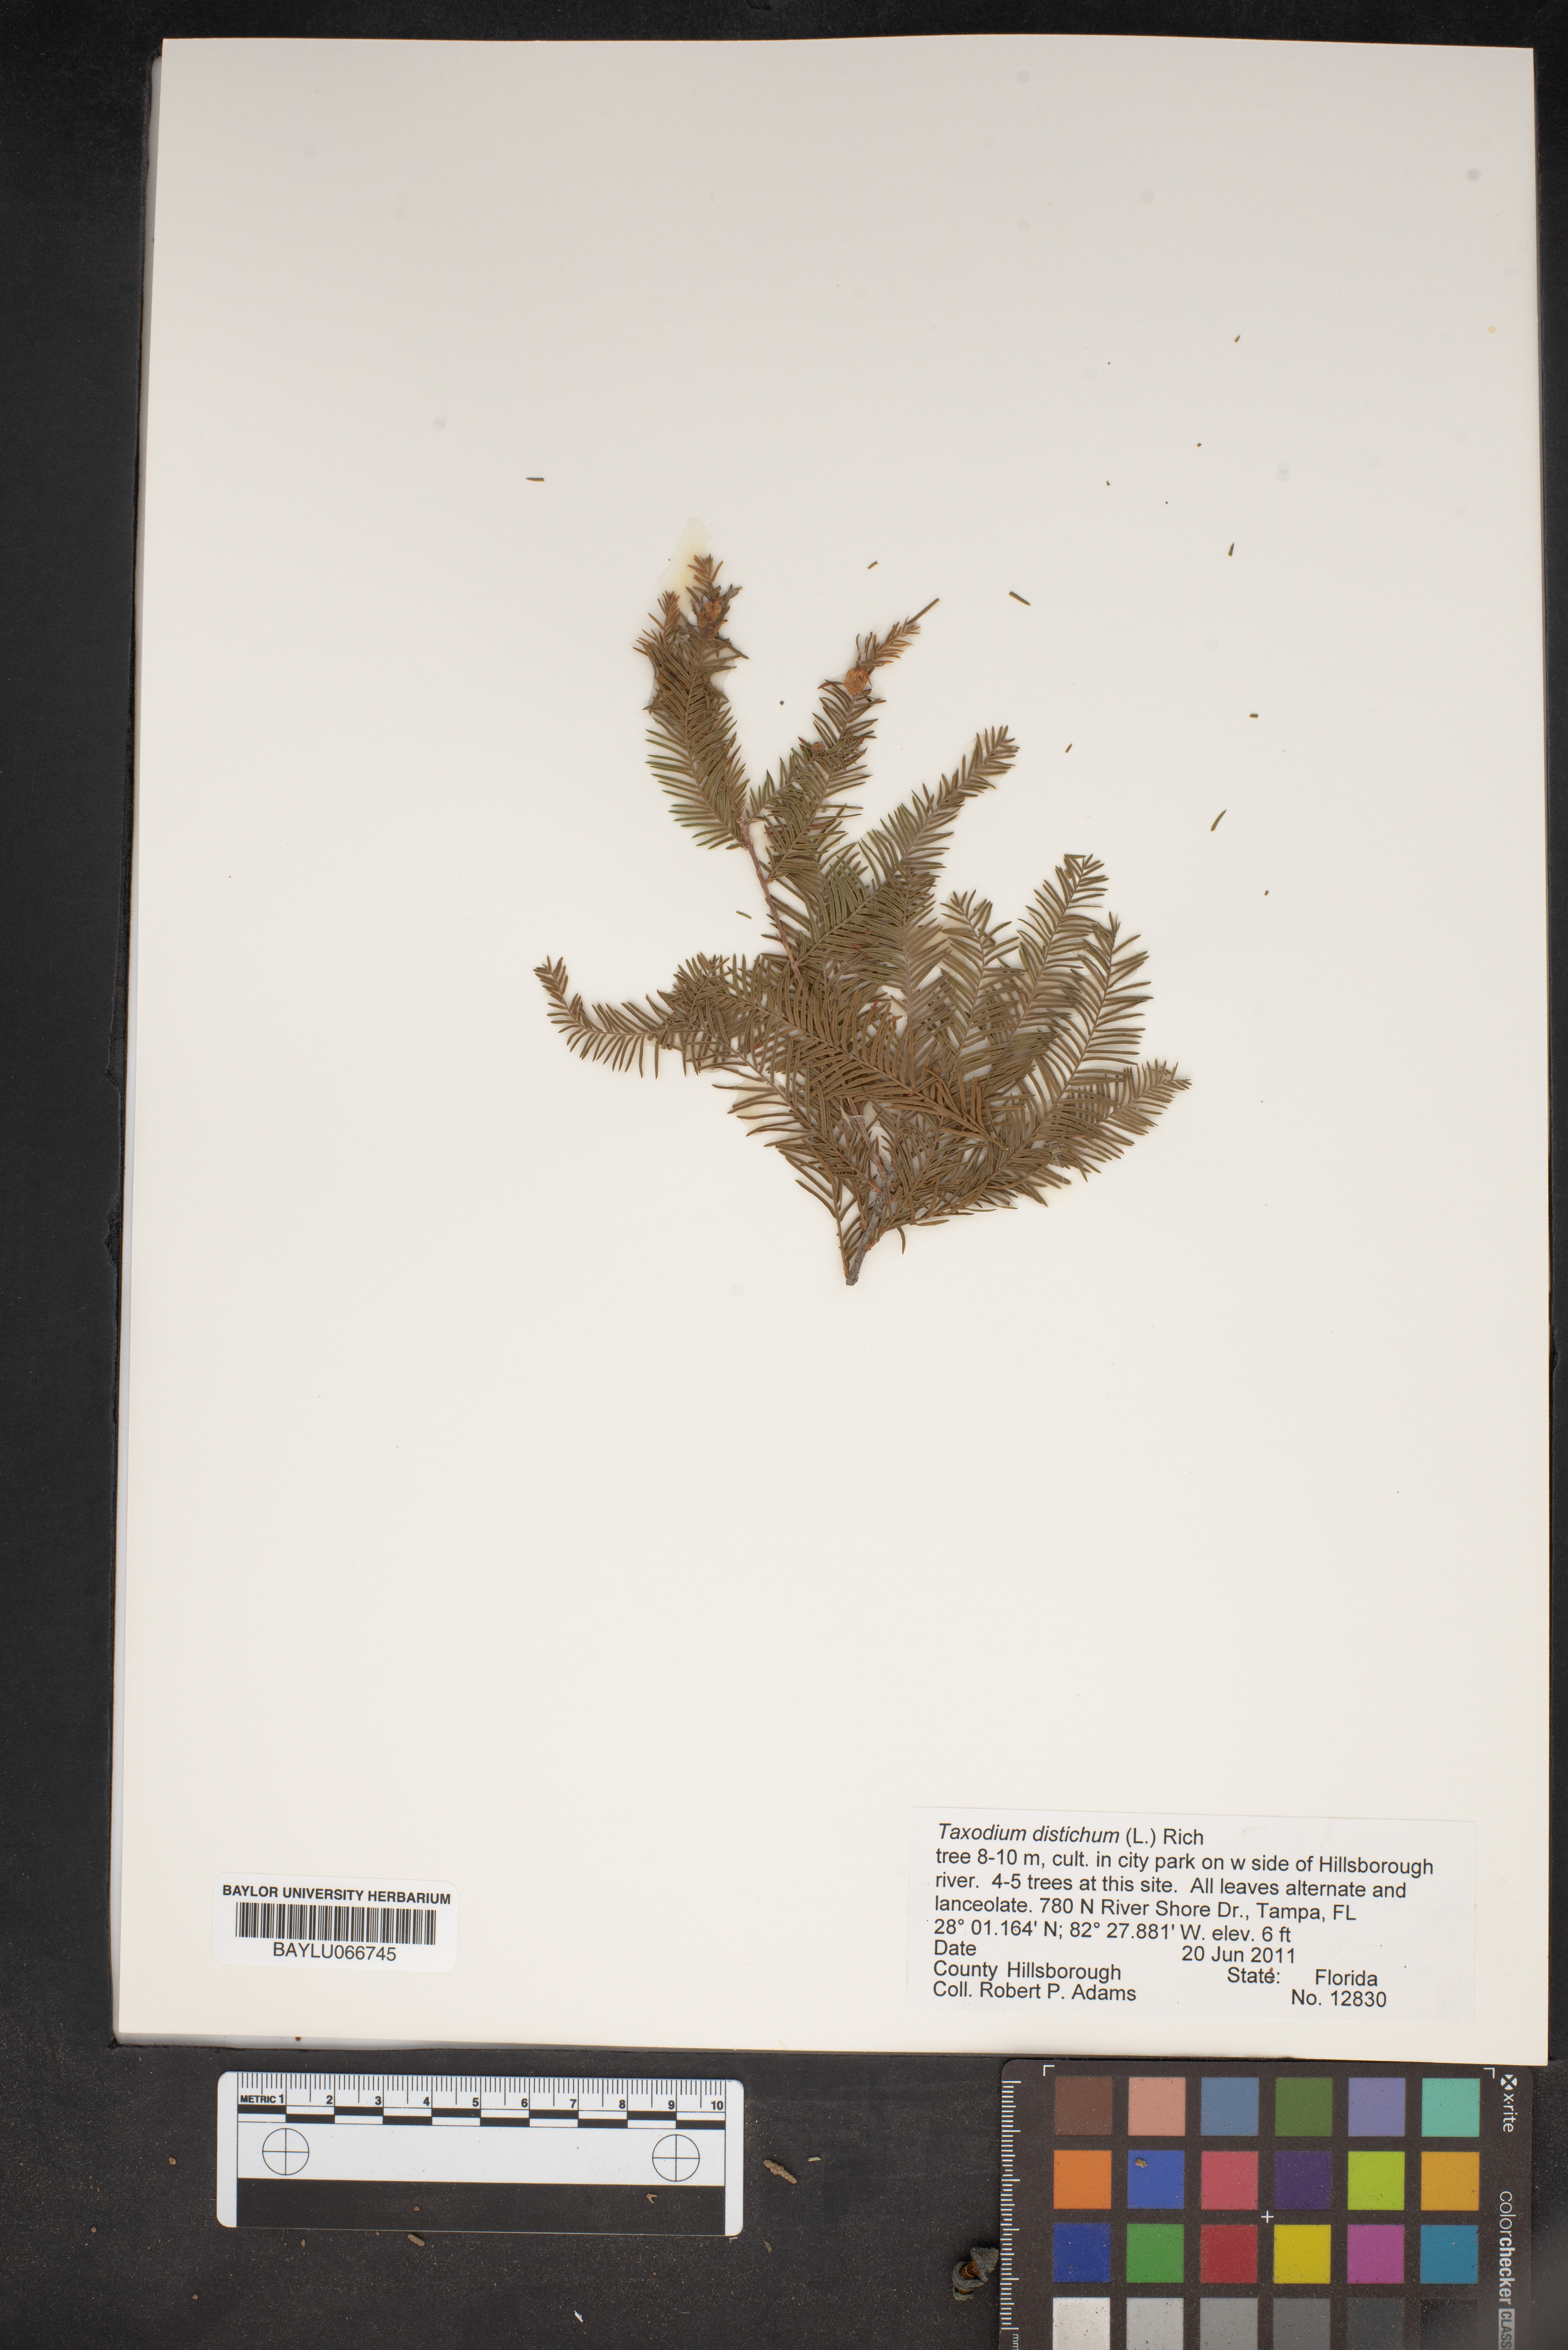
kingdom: Plantae
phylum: Tracheophyta
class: Pinopsida
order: Pinales
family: Cupressaceae
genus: Taxodium
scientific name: Taxodium distichum
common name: Bald cypress
